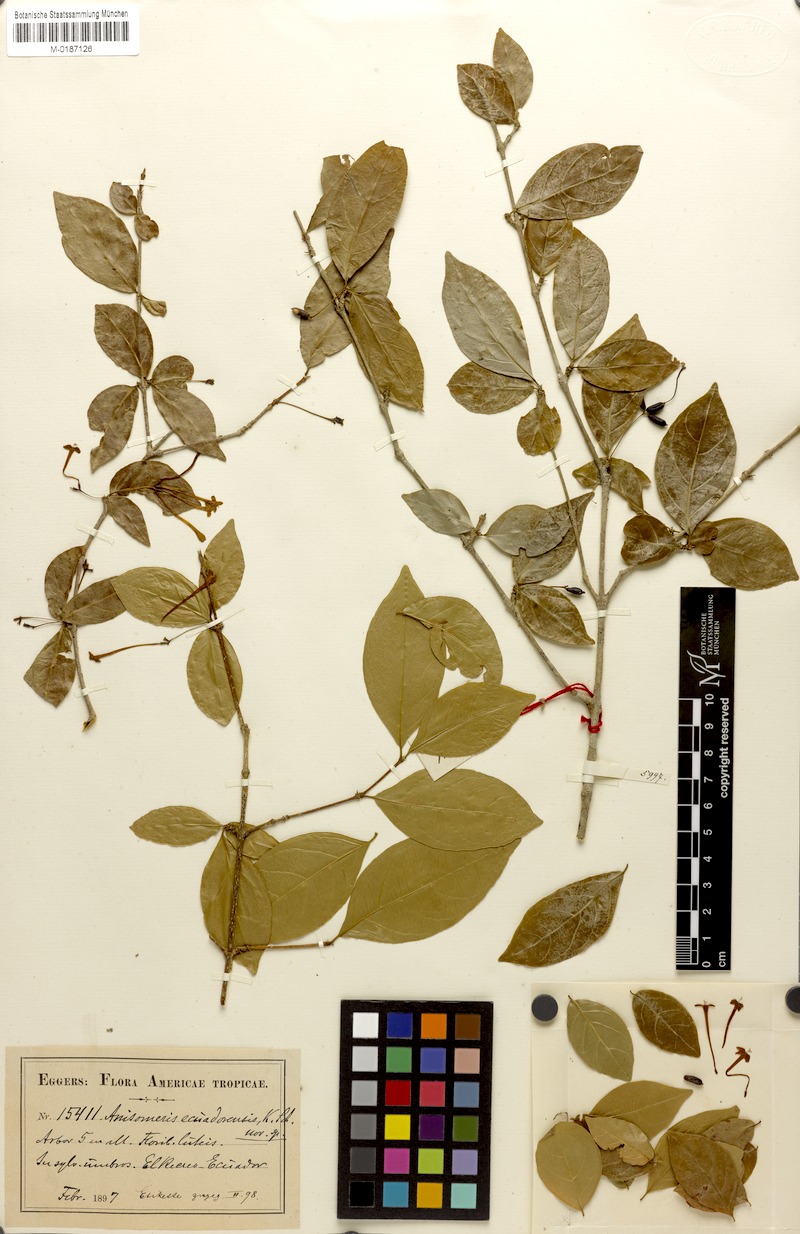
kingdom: Plantae
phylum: Tracheophyta
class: Magnoliopsida
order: Gentianales
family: Rubiaceae
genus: Chomelia
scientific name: Chomelia ecuadorensis
